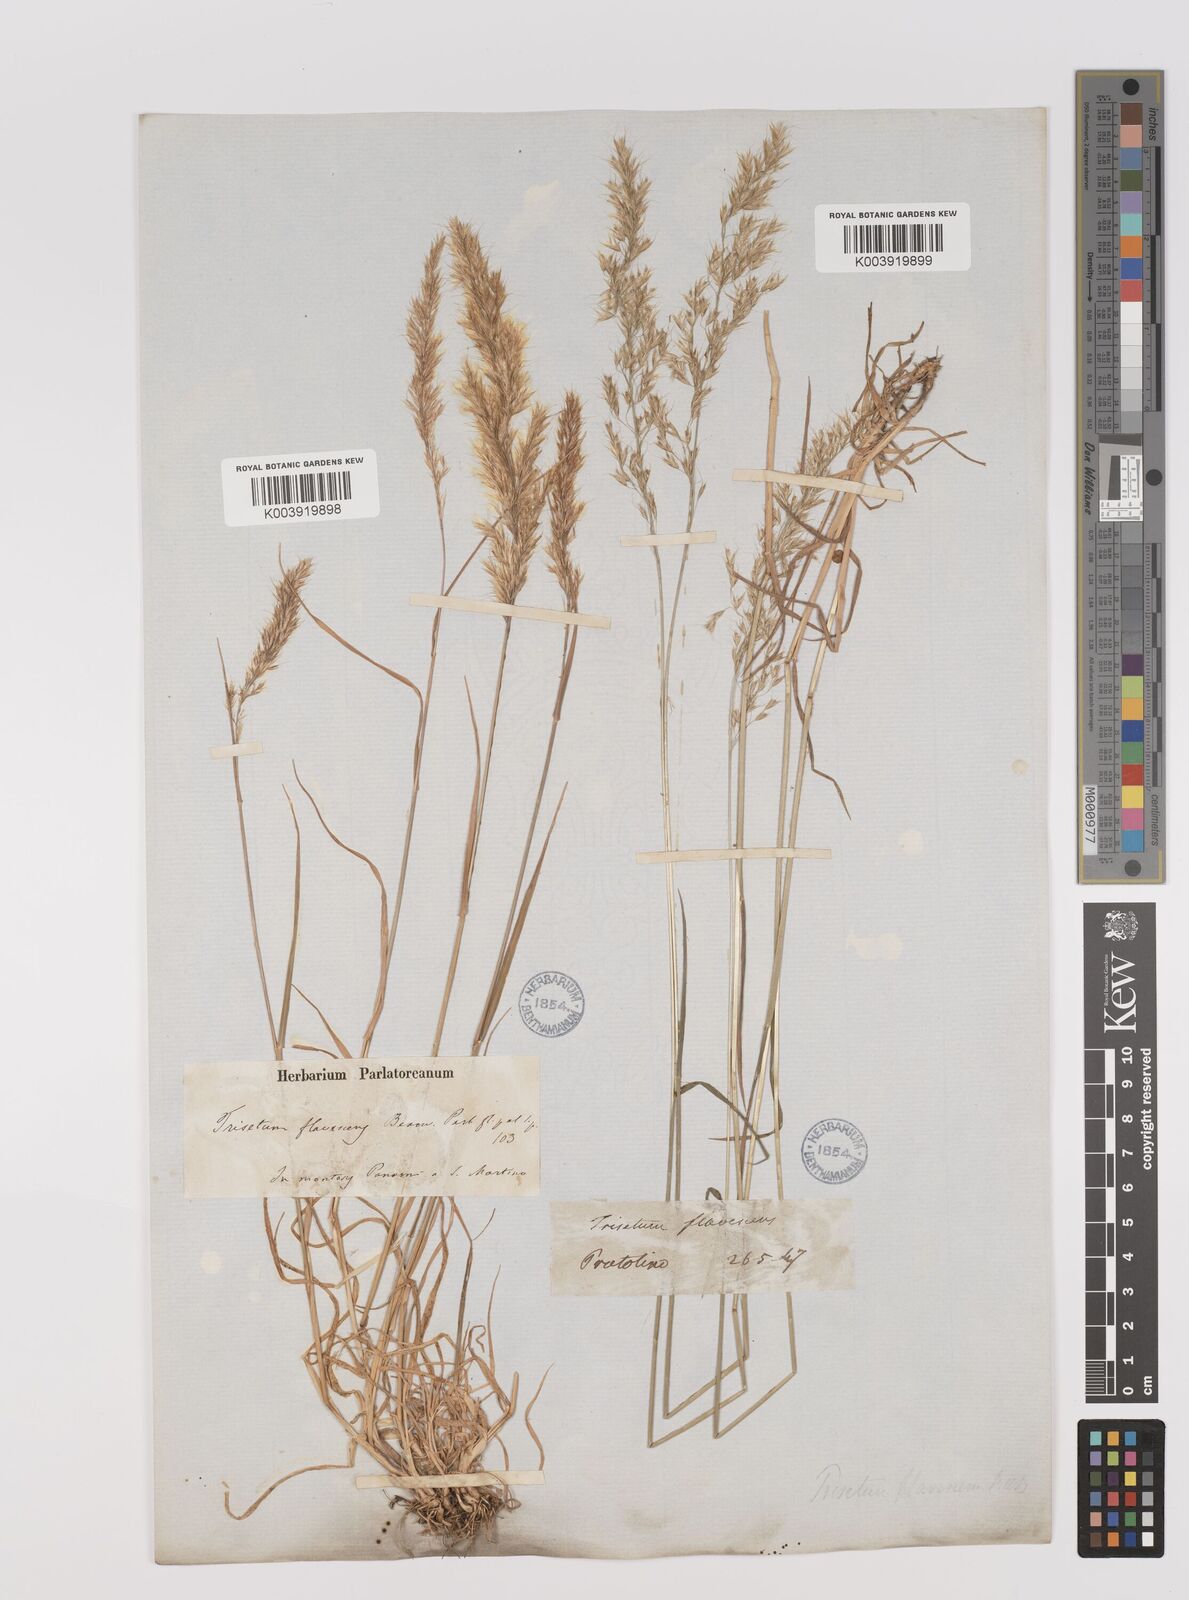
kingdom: Plantae
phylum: Tracheophyta
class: Liliopsida
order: Poales
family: Poaceae
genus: Trisetum
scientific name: Trisetum flavescens
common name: Yellow oat-grass
